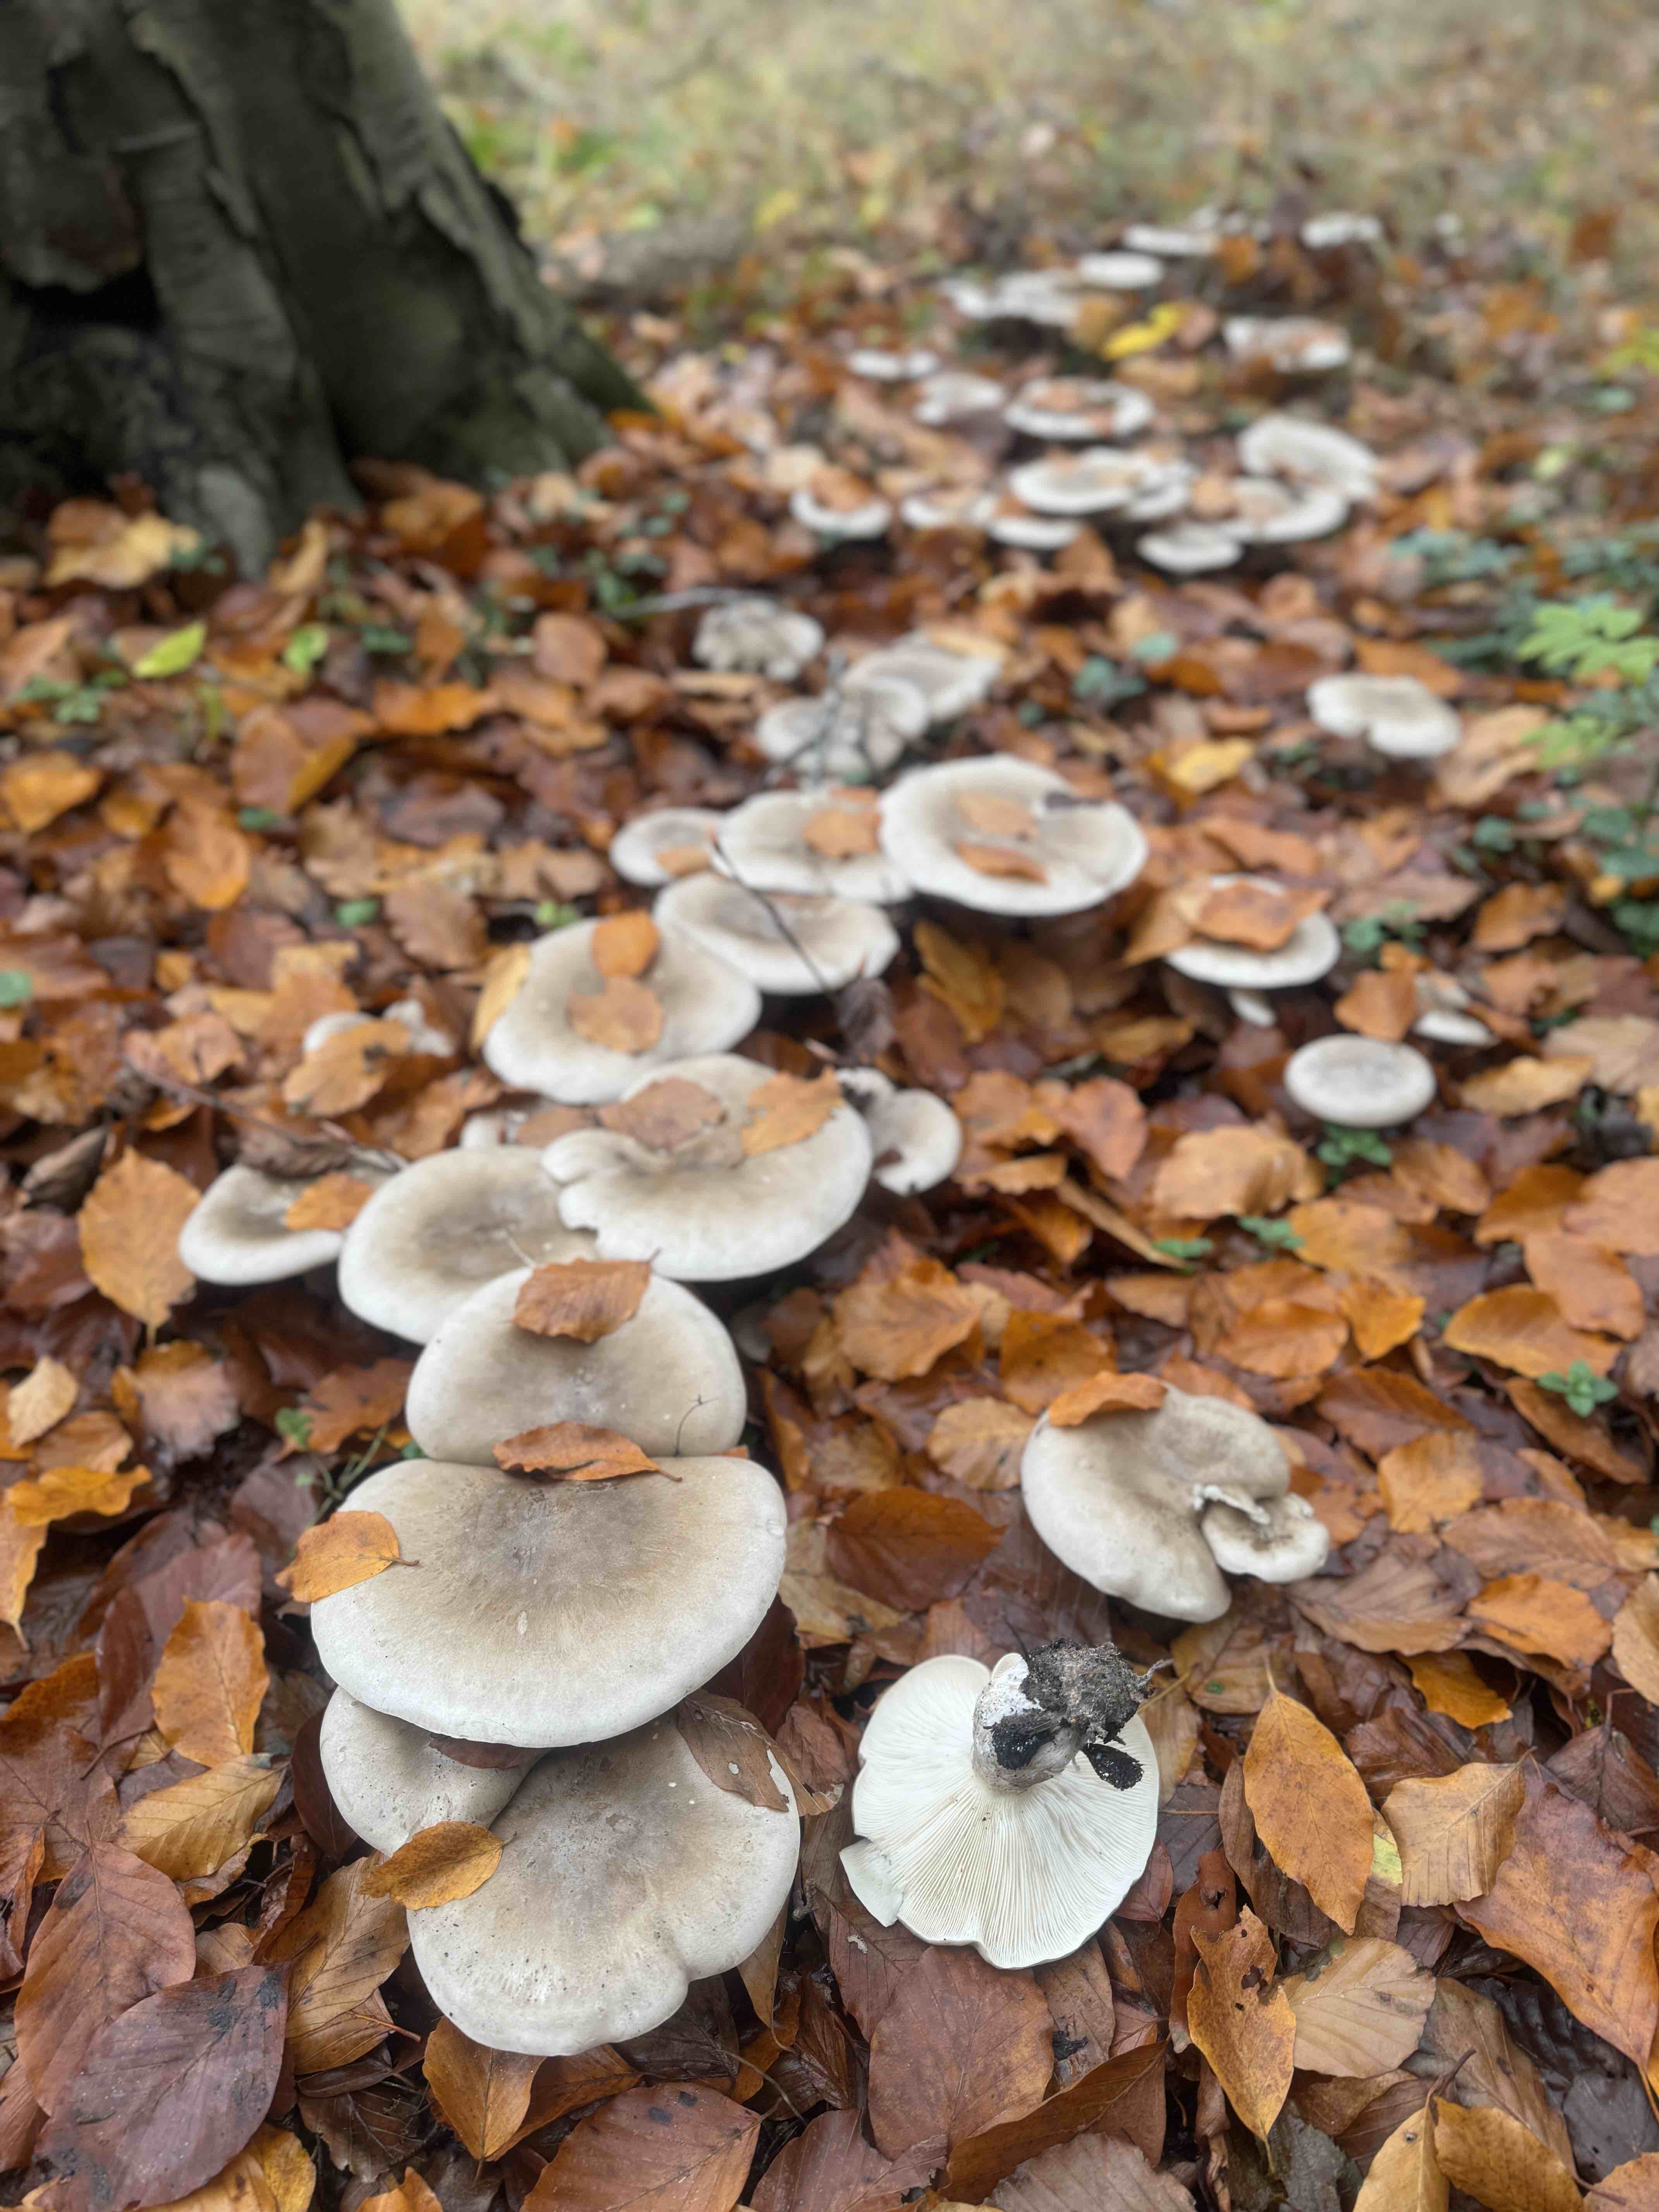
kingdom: Fungi
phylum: Basidiomycota
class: Agaricomycetes
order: Agaricales
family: Tricholomataceae
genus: Clitocybe
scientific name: Clitocybe nebularis
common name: tåge-tragthat
